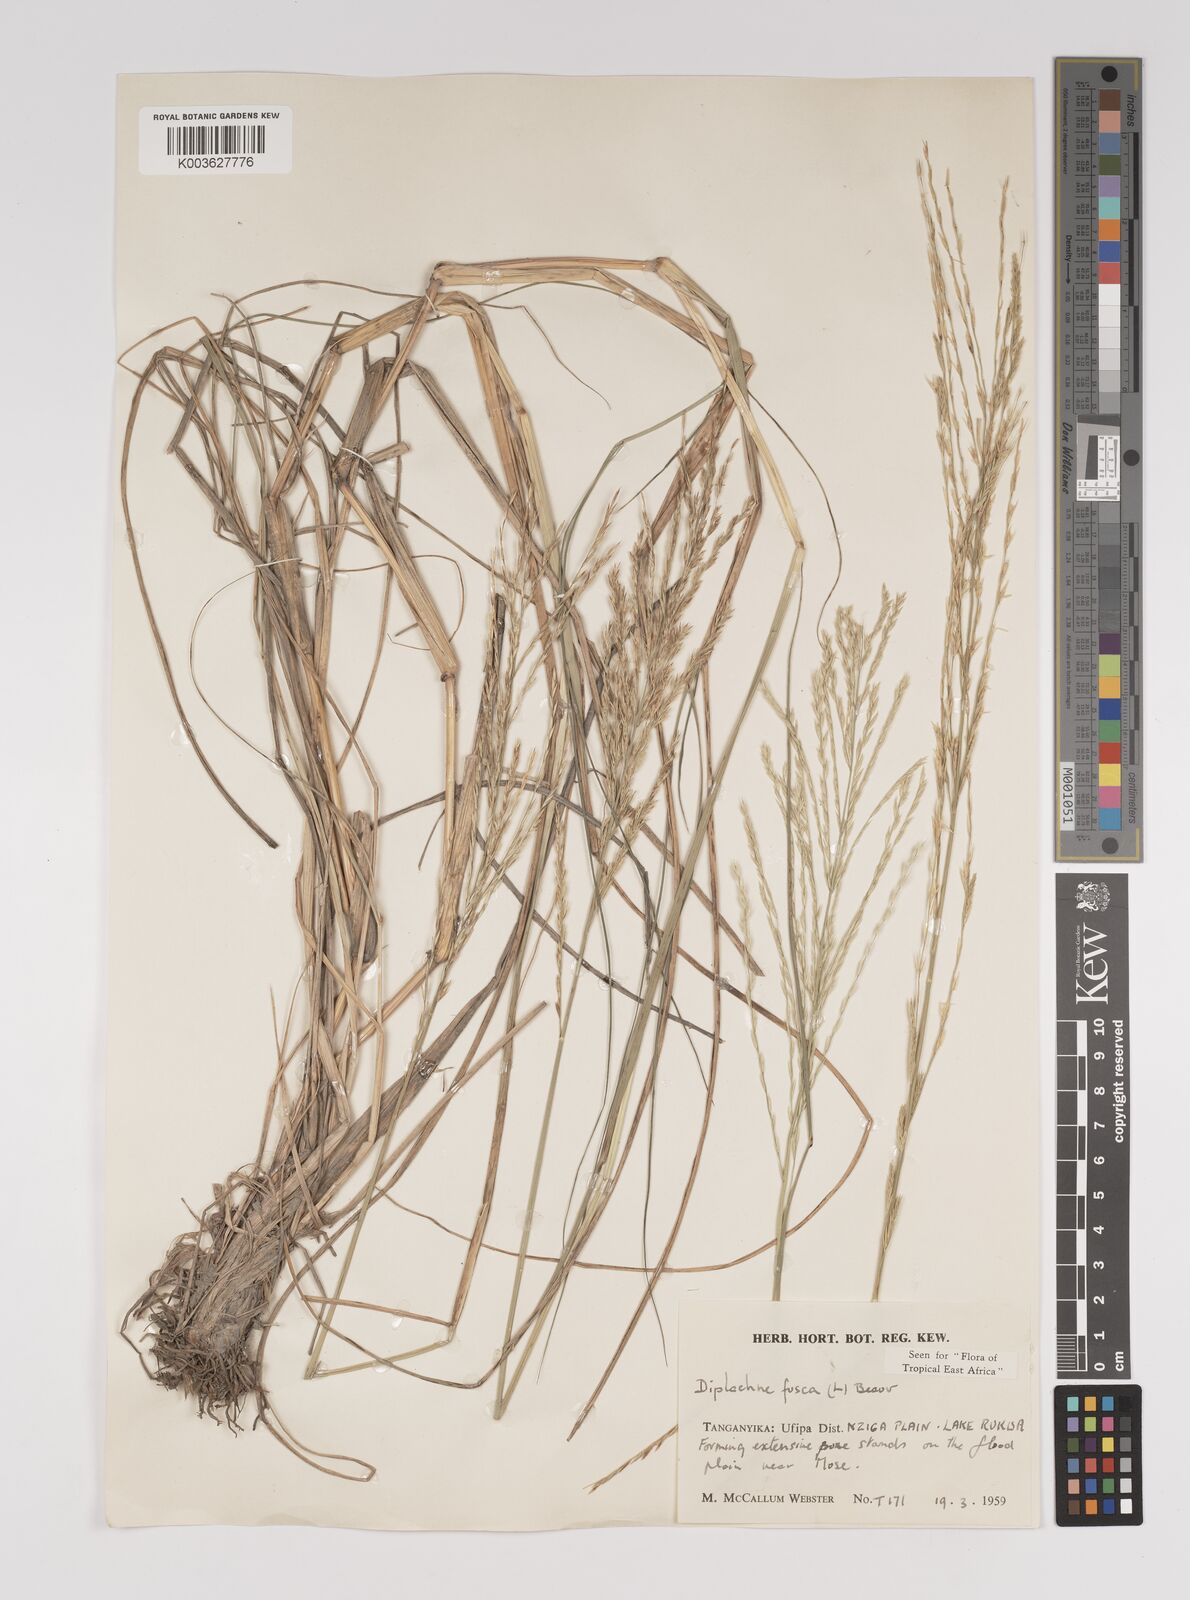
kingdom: Plantae
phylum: Tracheophyta
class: Liliopsida
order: Poales
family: Poaceae
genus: Diplachne
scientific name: Diplachne fusca
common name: Brown beetle grass
